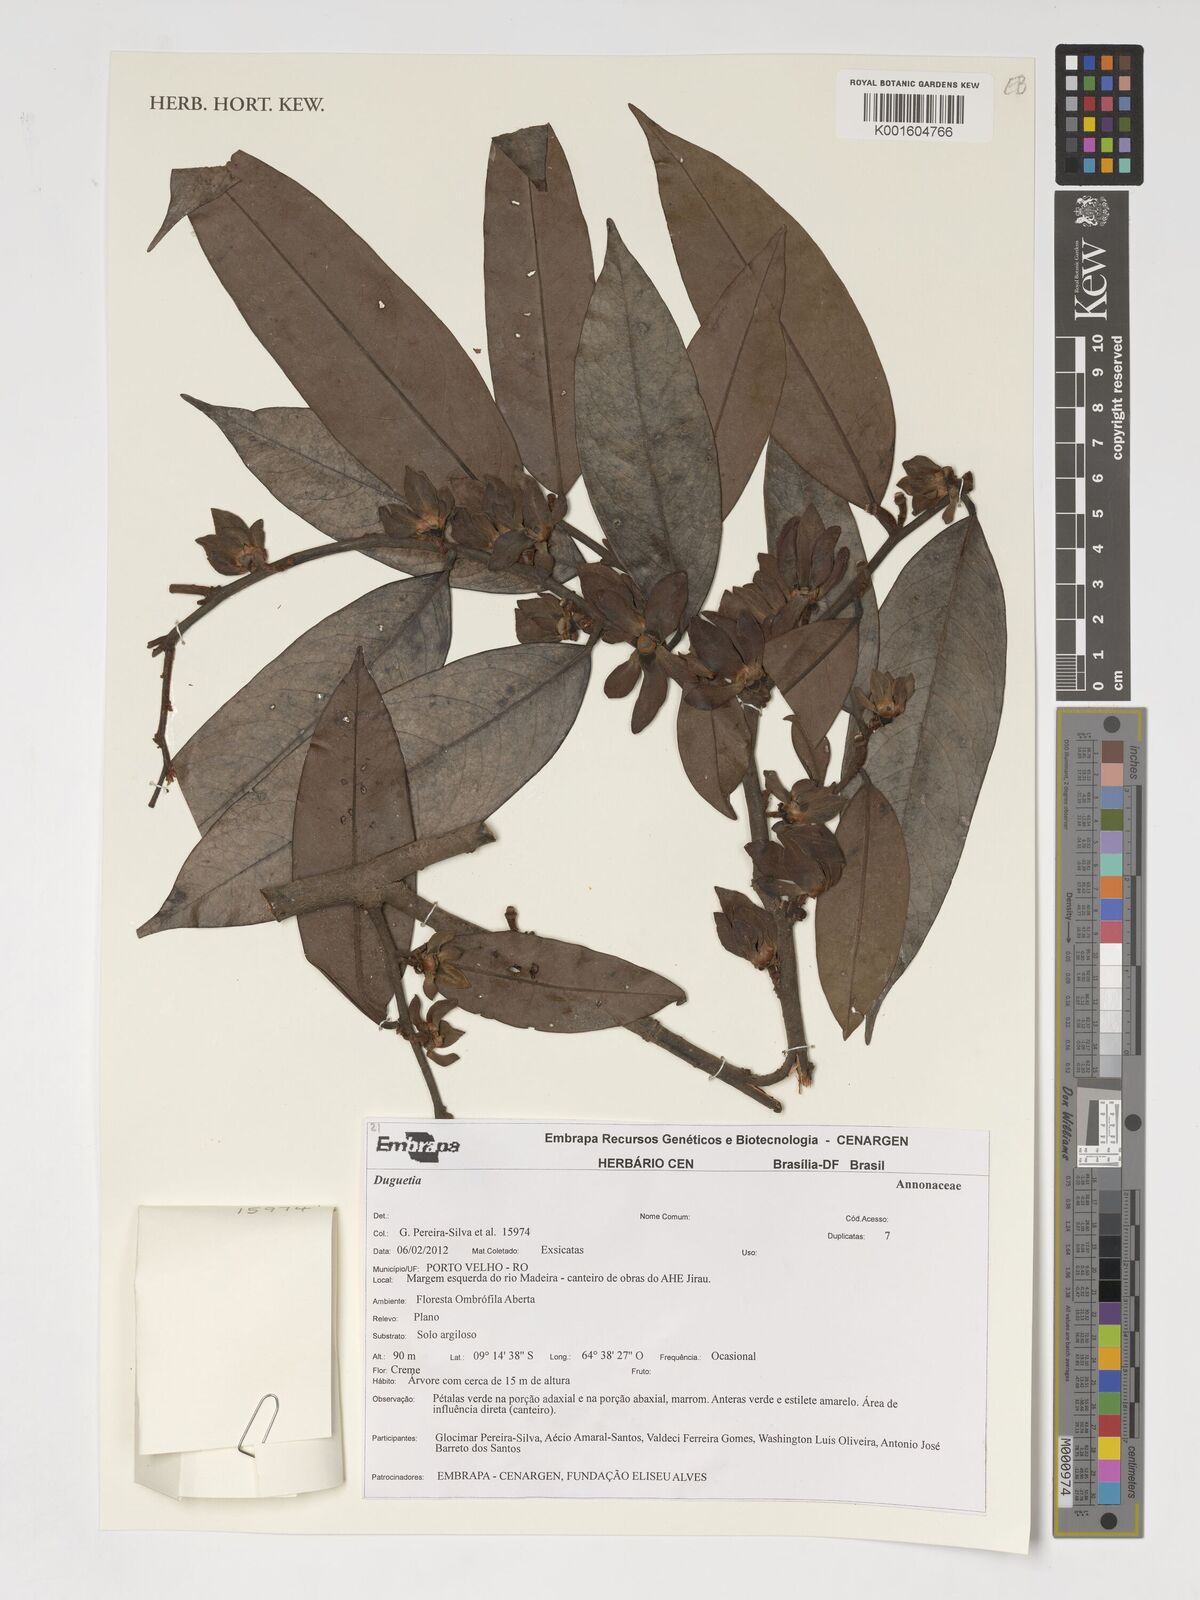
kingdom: Plantae
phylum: Tracheophyta
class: Magnoliopsida
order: Magnoliales
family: Annonaceae
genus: Duguetia
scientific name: Duguetia
